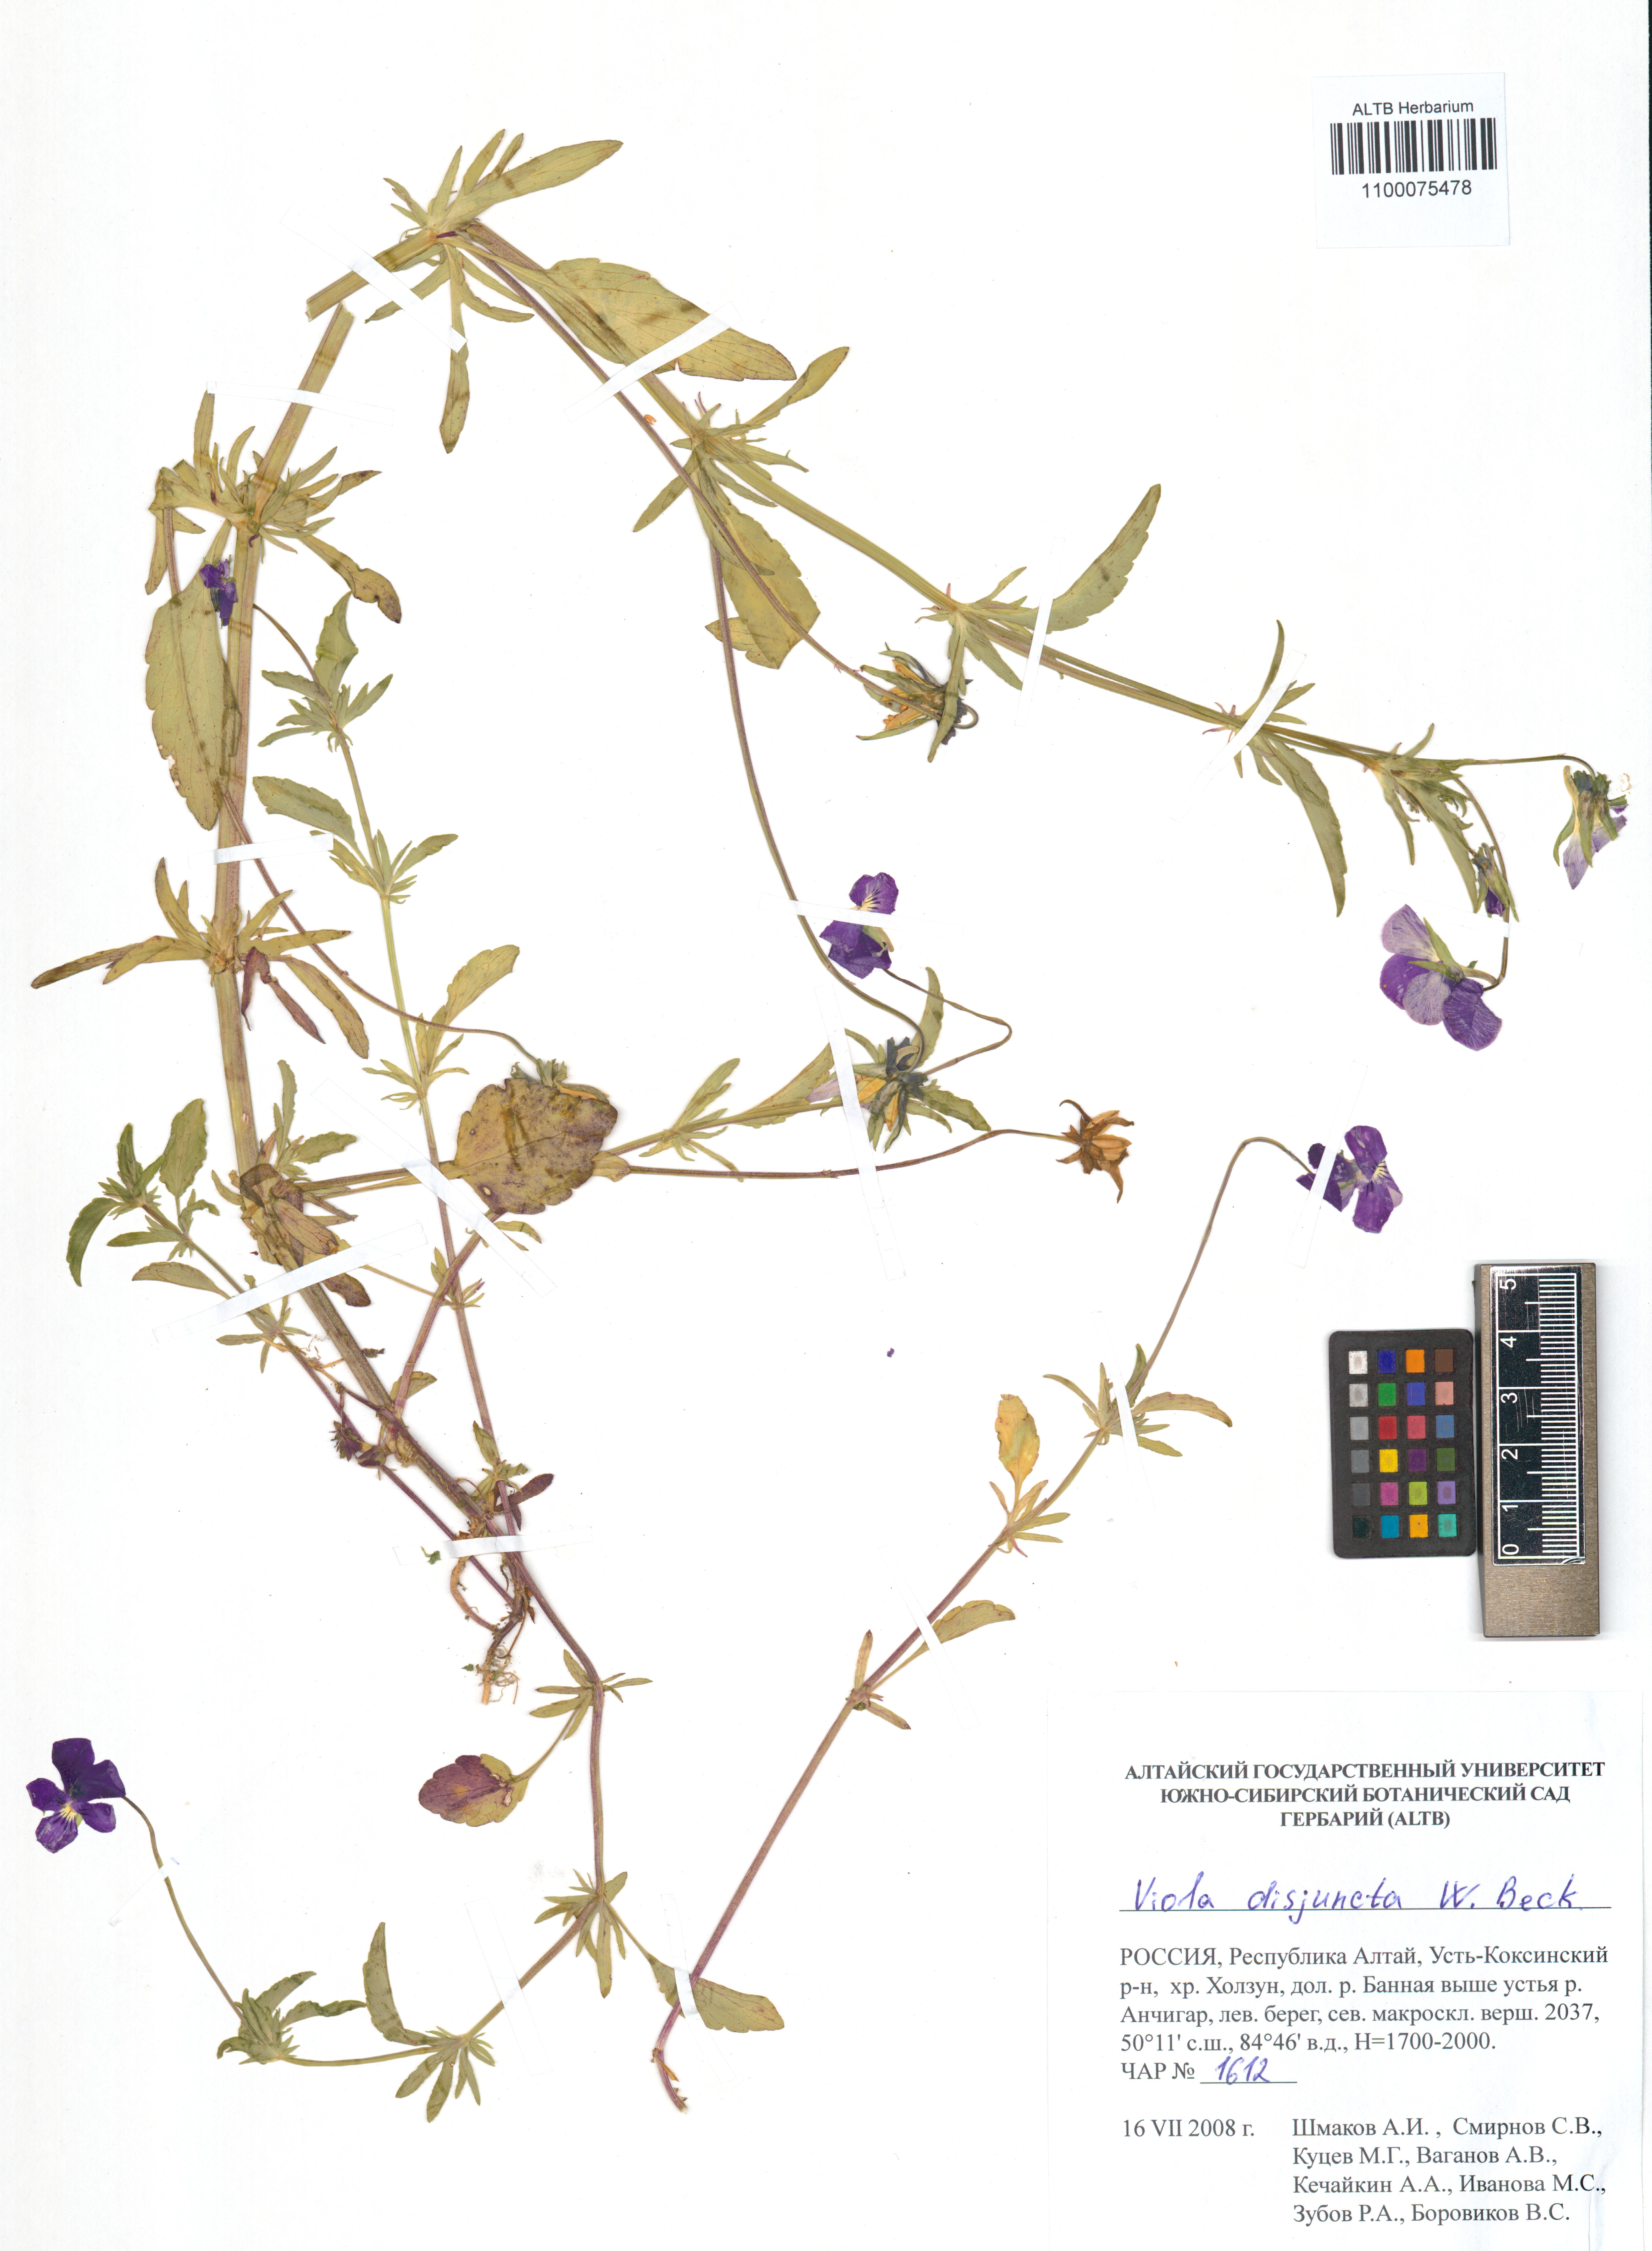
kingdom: Plantae
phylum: Tracheophyta
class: Magnoliopsida
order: Malpighiales
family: Violaceae
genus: Viola
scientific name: Viola tricolor
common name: Pansy
